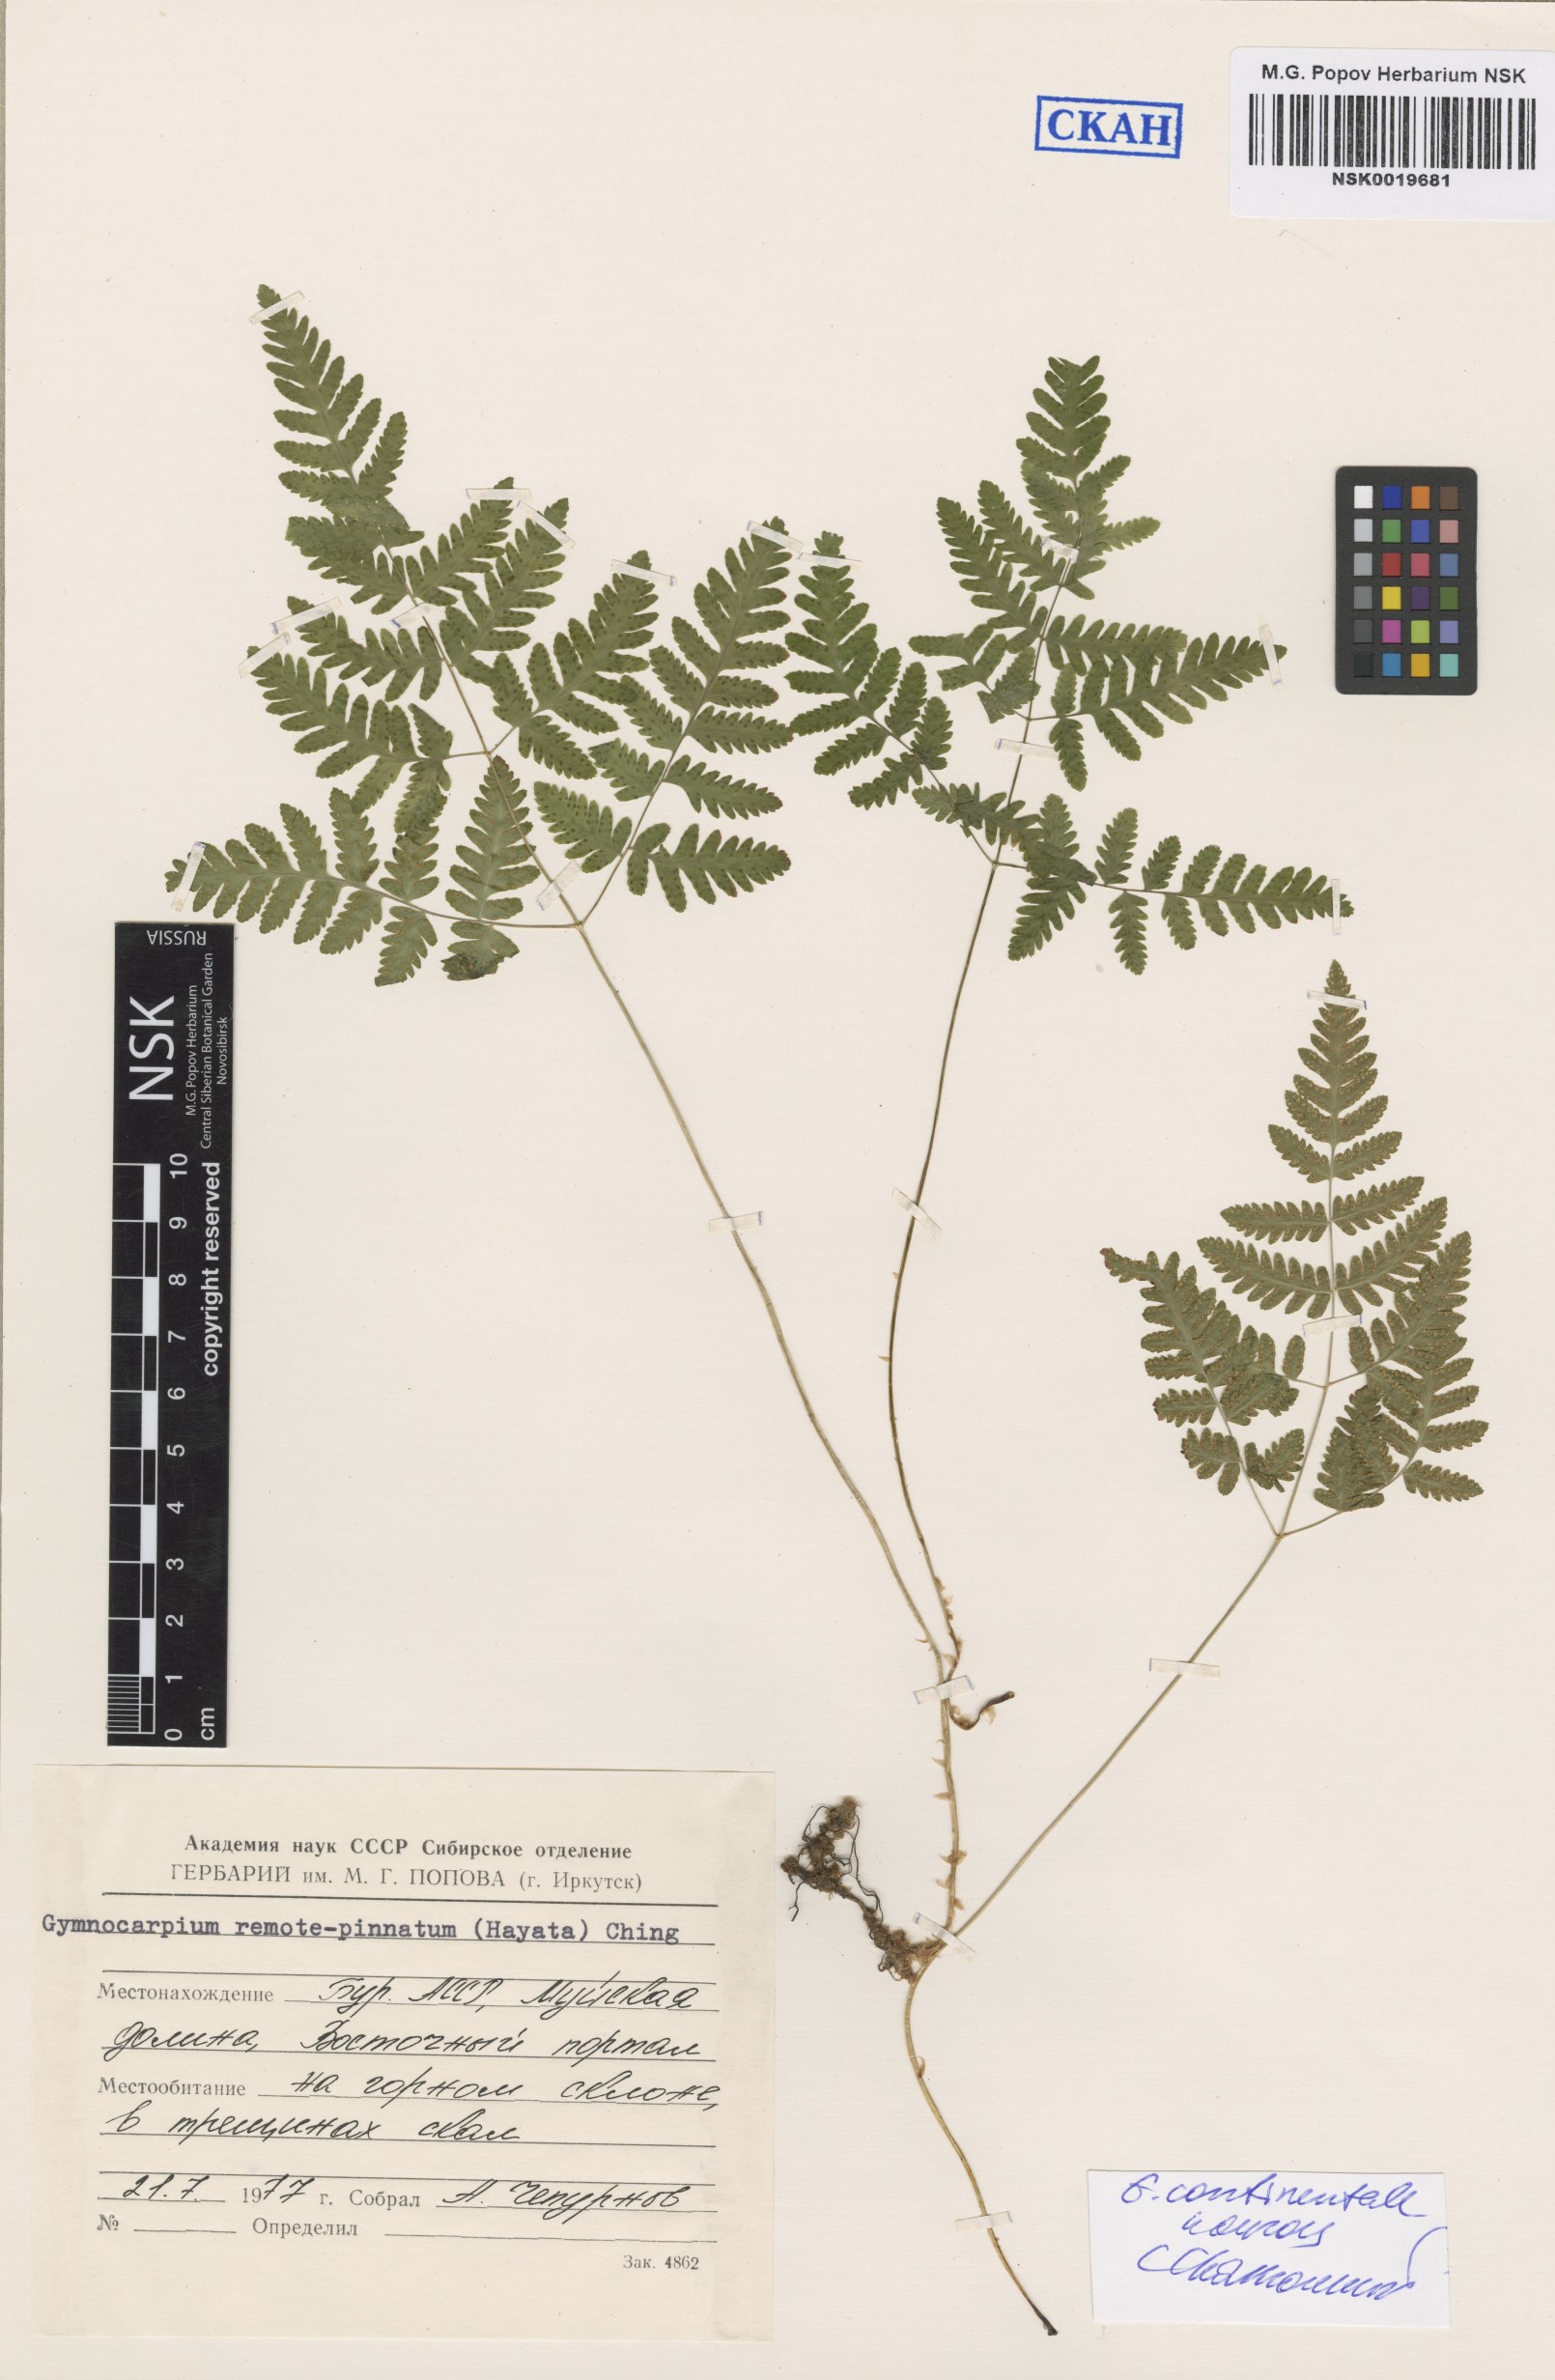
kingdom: Plantae
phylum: Tracheophyta
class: Polypodiopsida
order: Polypodiales
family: Cystopteridaceae
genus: Gymnocarpium
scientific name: Gymnocarpium continentale
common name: Asian oak fern
